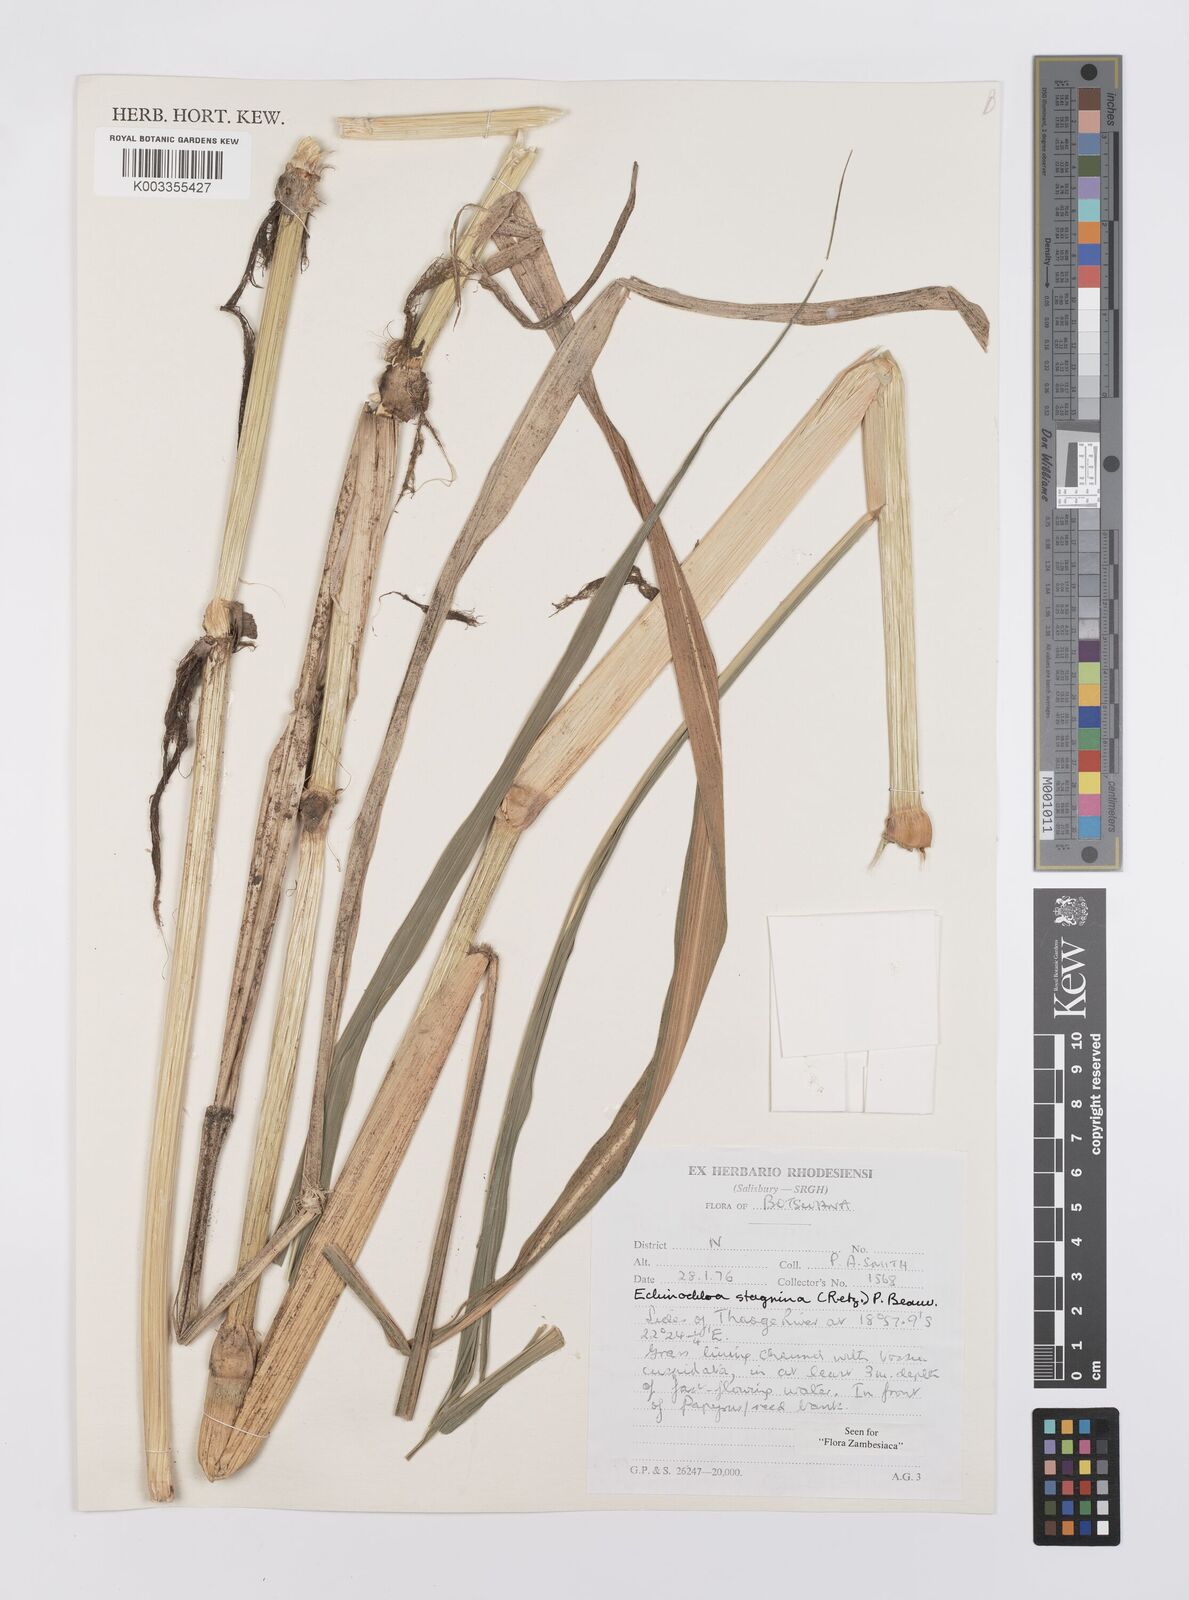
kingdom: Plantae
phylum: Tracheophyta
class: Liliopsida
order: Poales
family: Poaceae
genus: Echinochloa
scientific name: Echinochloa stagnina
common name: Burgu grass
